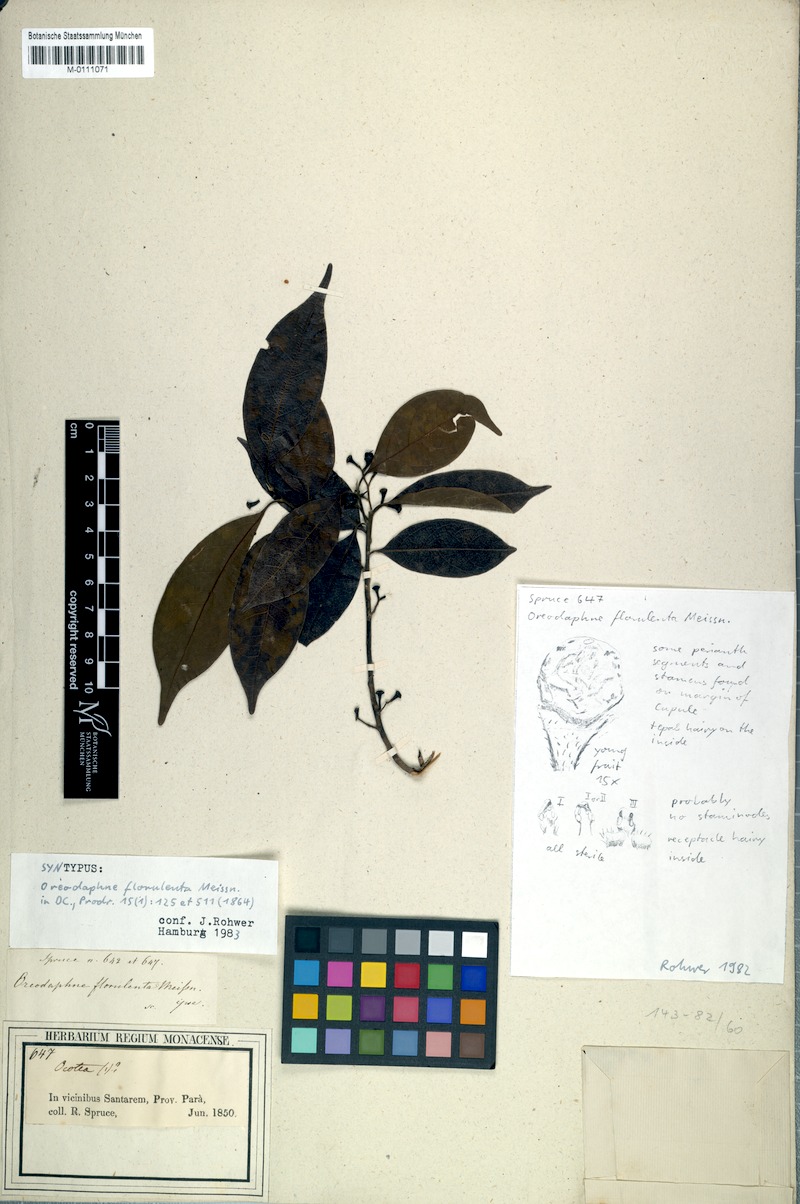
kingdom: Plantae
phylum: Tracheophyta
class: Magnoliopsida
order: Laurales
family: Lauraceae
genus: Ocotea
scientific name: Ocotea neesiana
